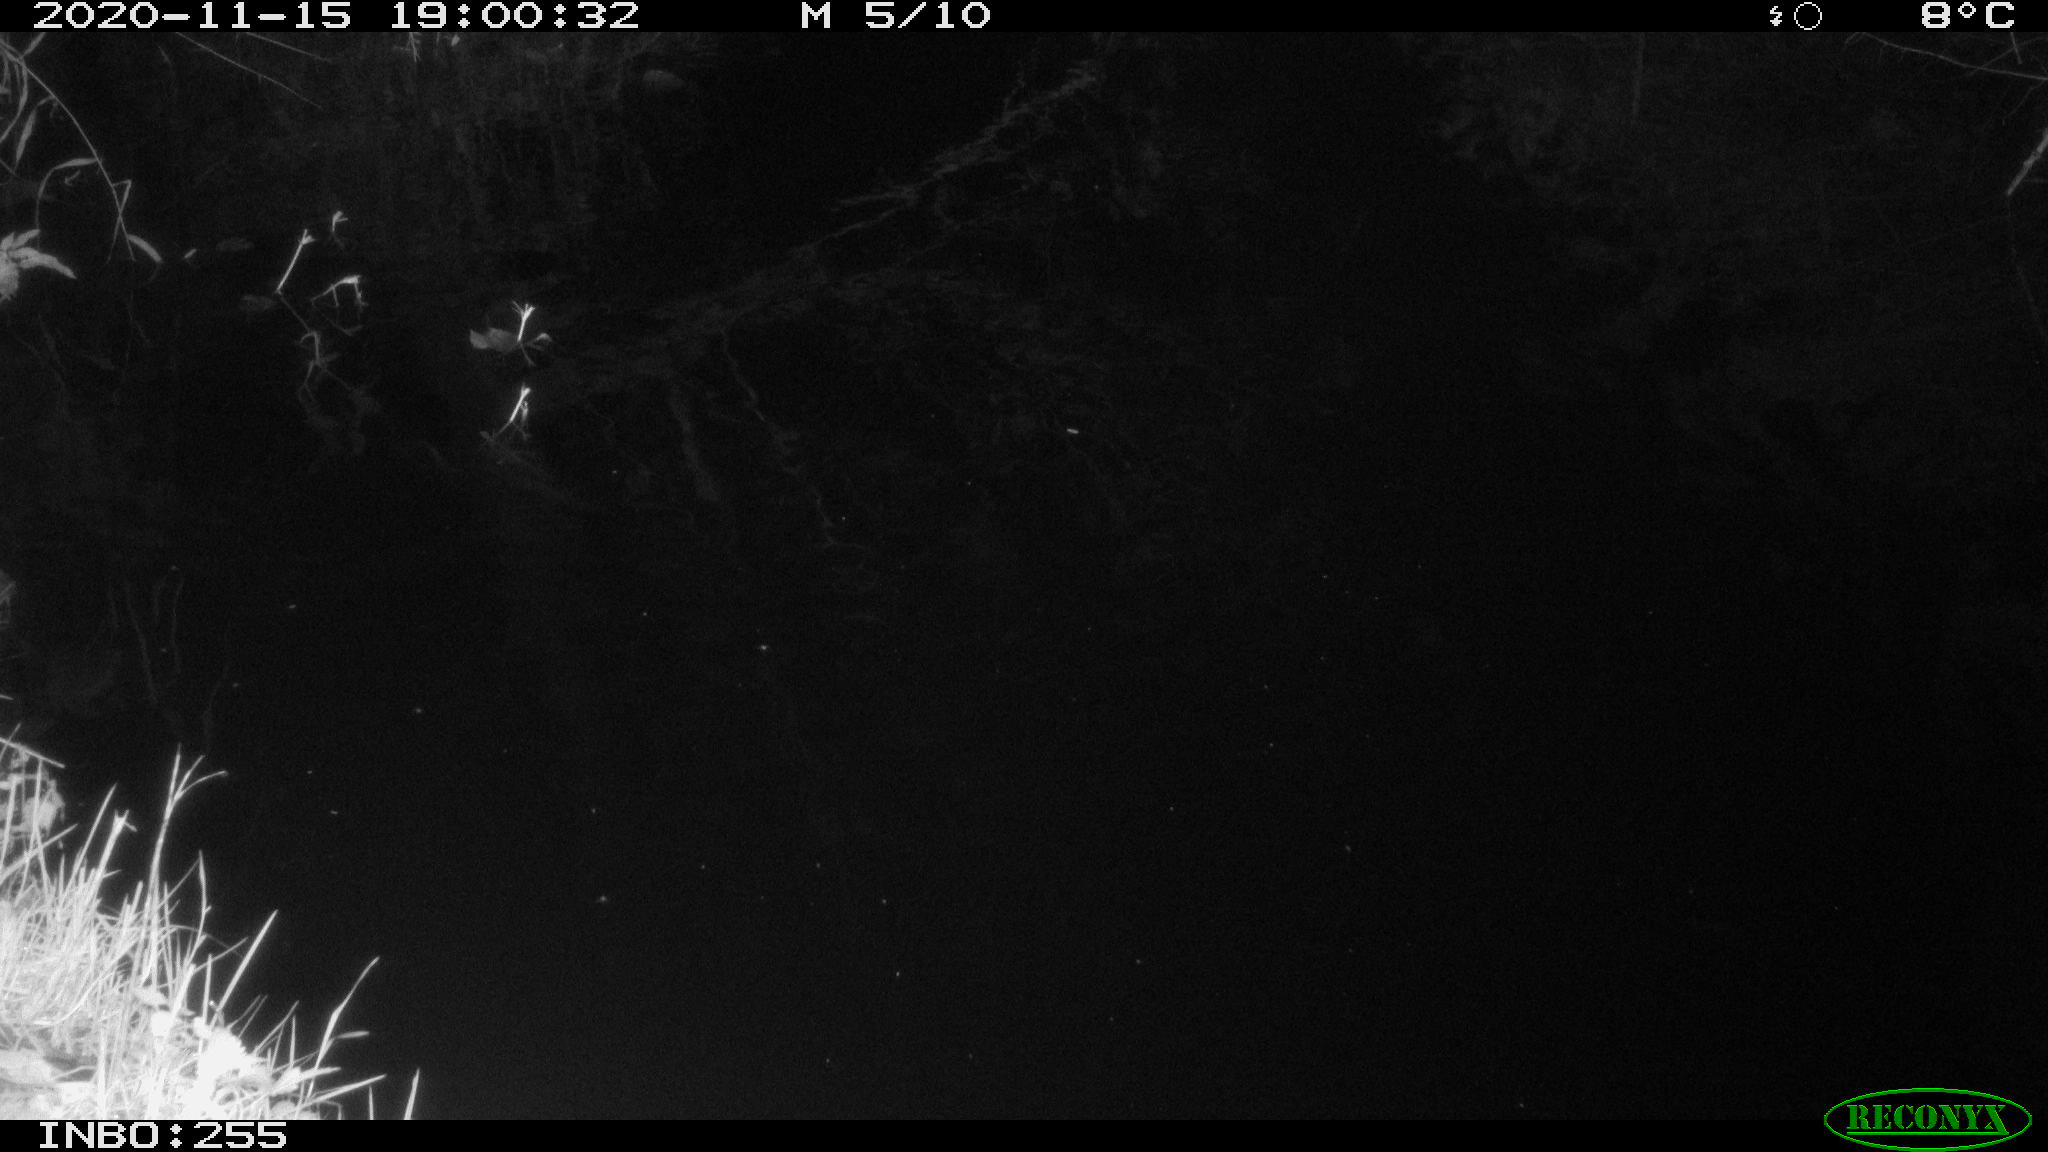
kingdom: Animalia
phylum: Chordata
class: Mammalia
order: Rodentia
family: Muridae
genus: Rattus
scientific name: Rattus norvegicus
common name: Brown rat
